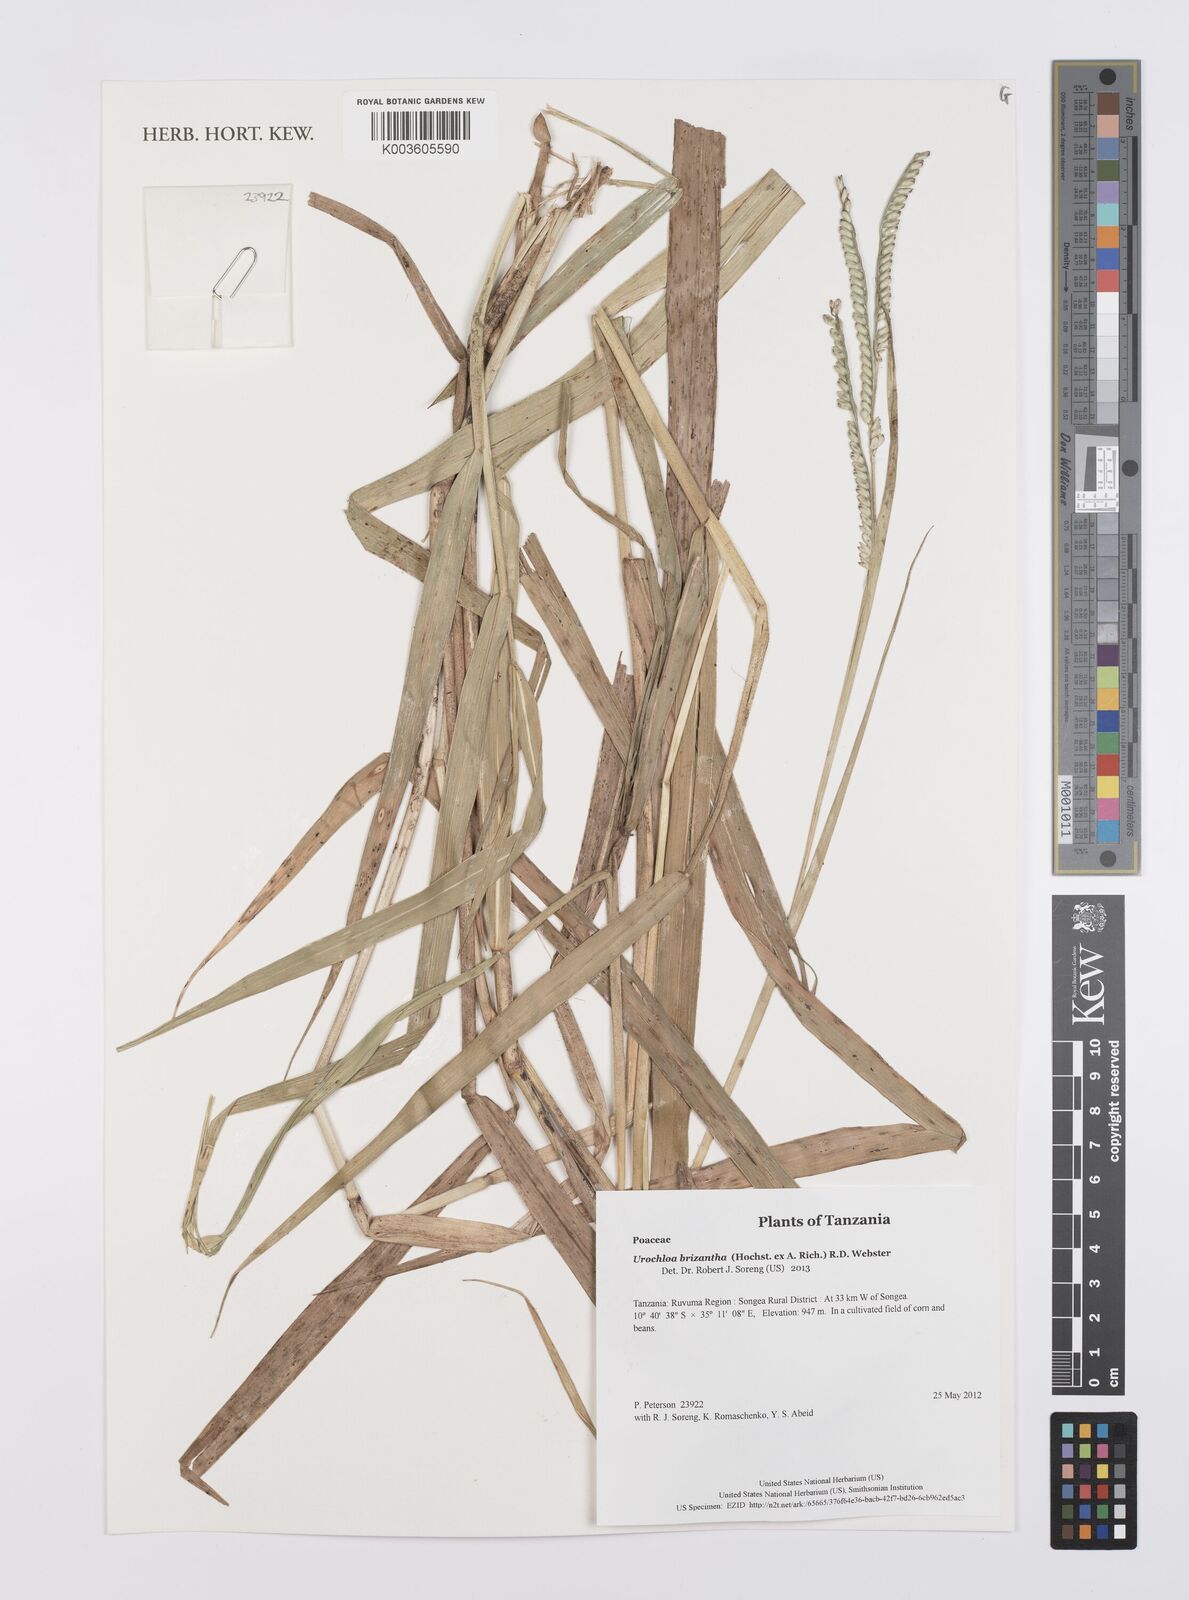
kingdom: Plantae
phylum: Tracheophyta
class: Liliopsida
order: Poales
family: Poaceae
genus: Urochloa
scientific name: Urochloa brizantha
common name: Palisade signalgrass
